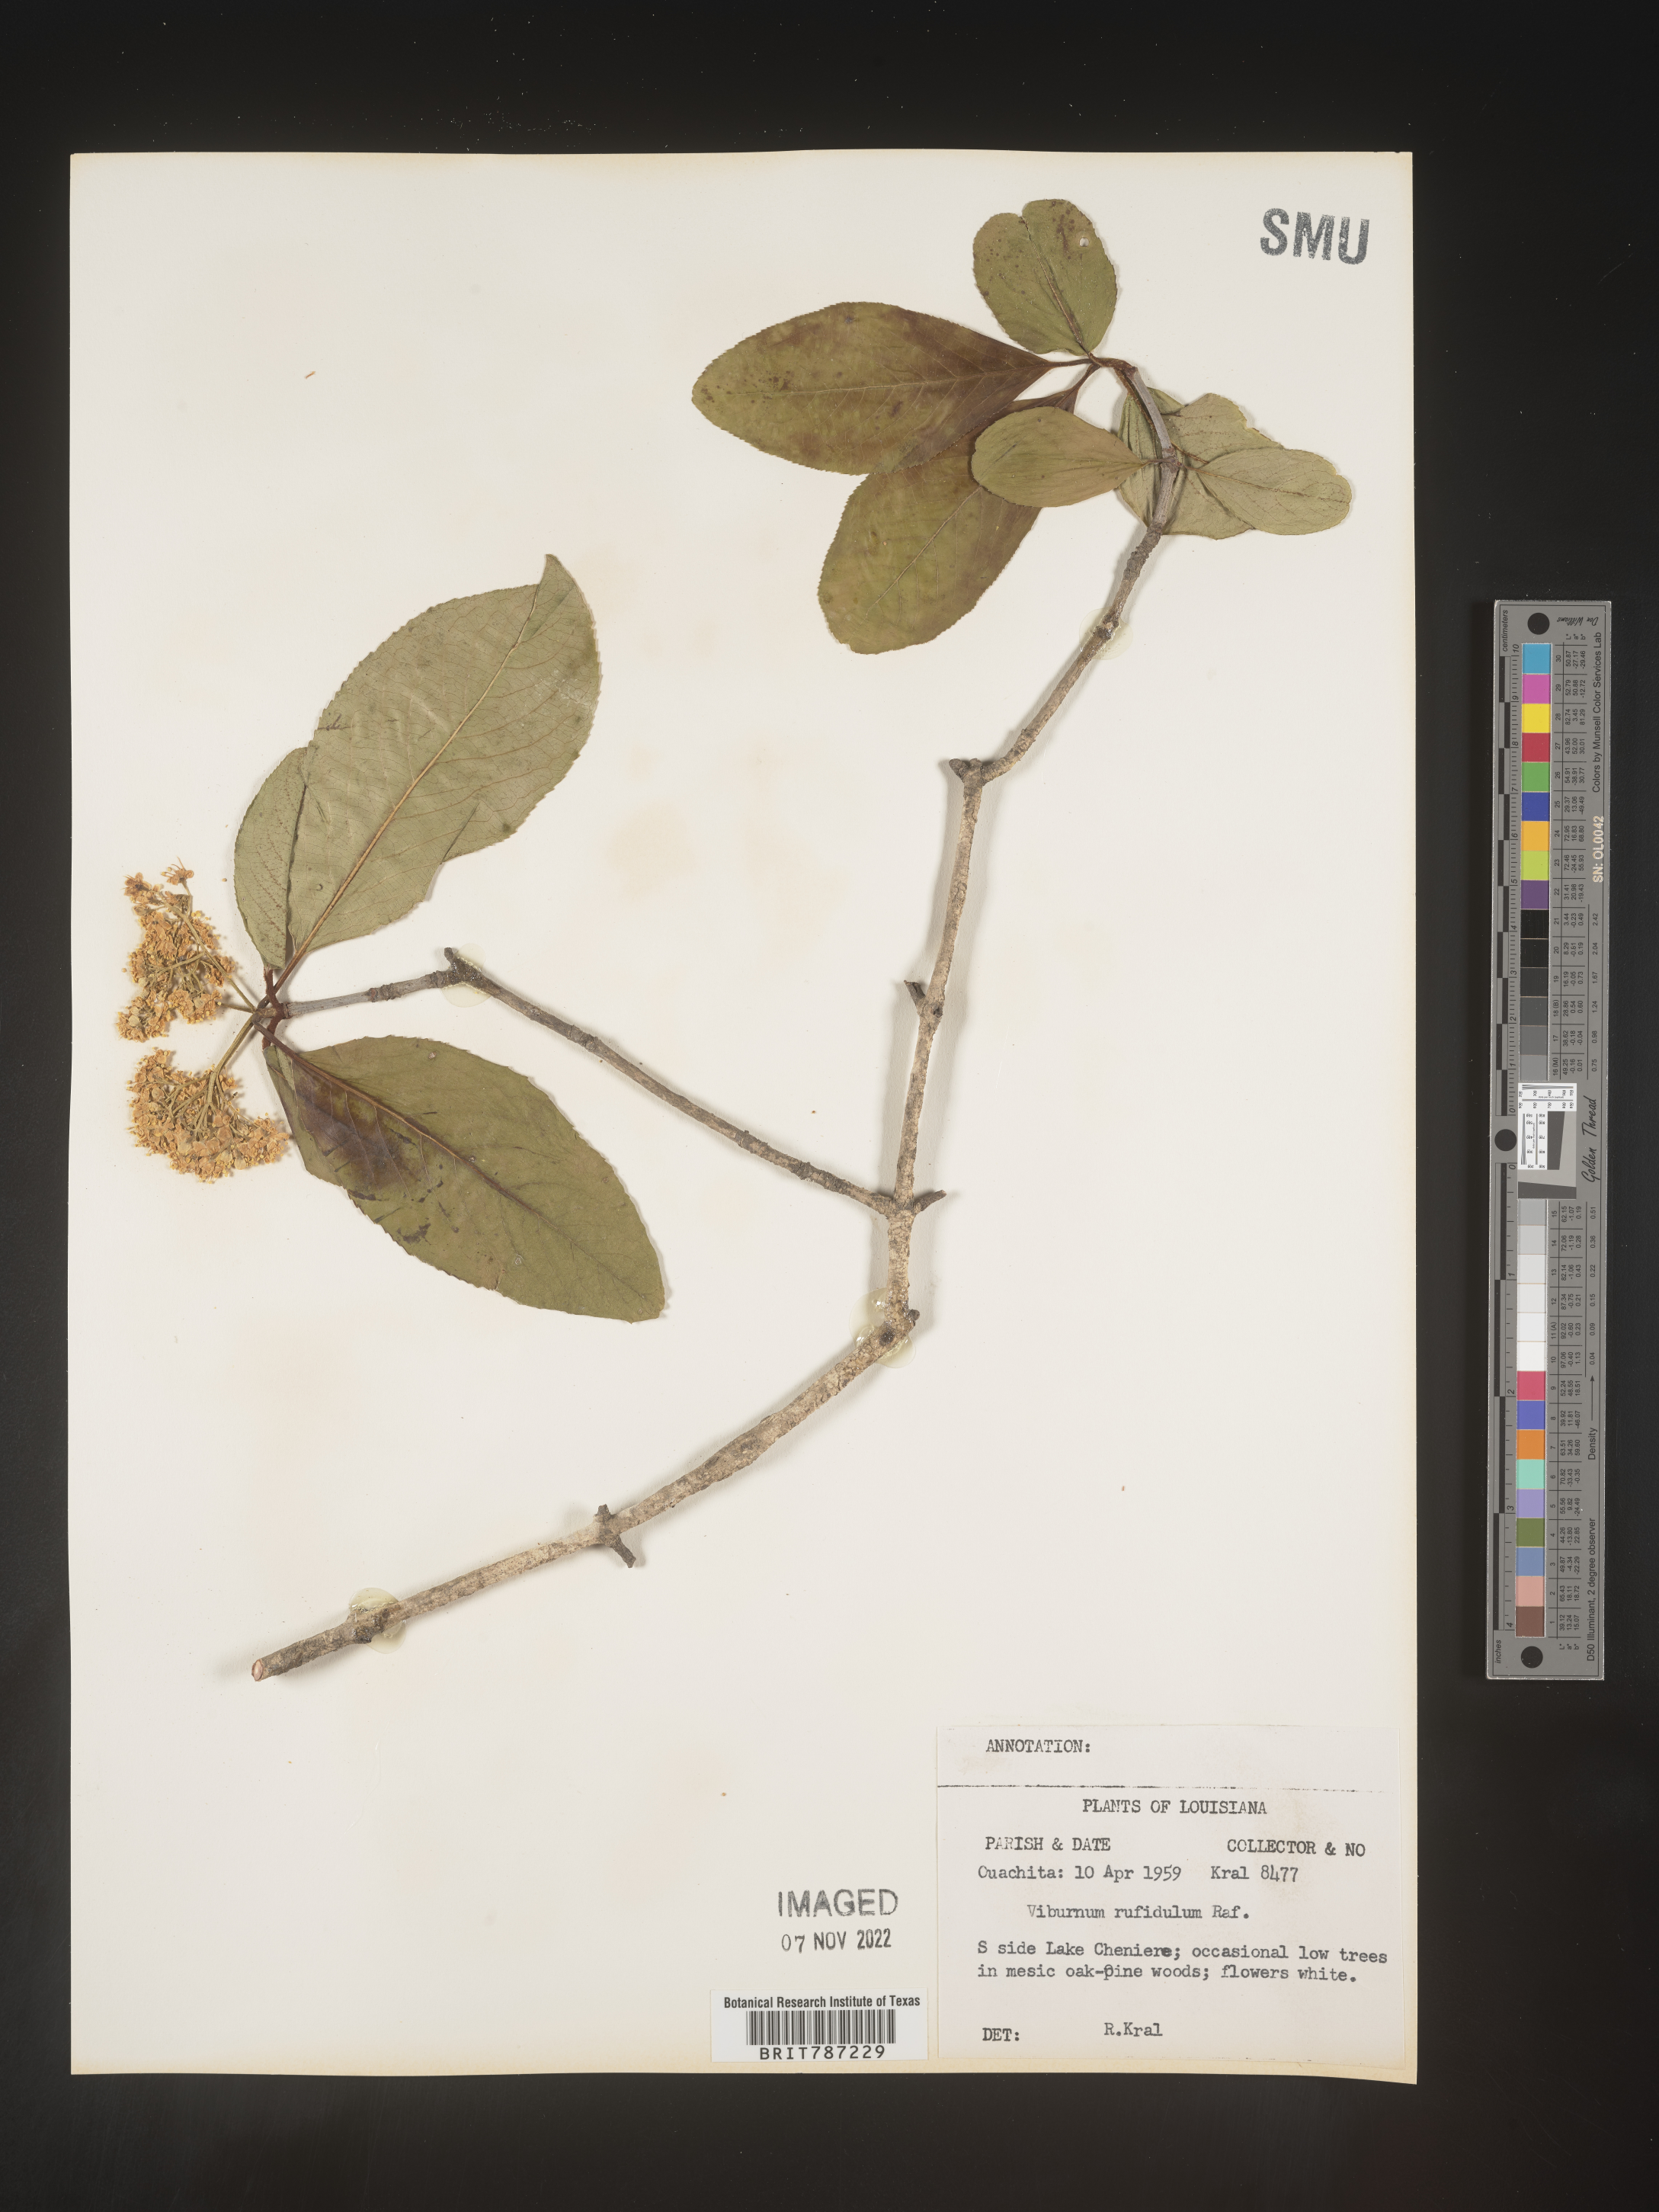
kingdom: Plantae
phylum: Tracheophyta
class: Magnoliopsida
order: Dipsacales
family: Viburnaceae
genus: Viburnum
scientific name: Viburnum rufidulum
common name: Blue haw
